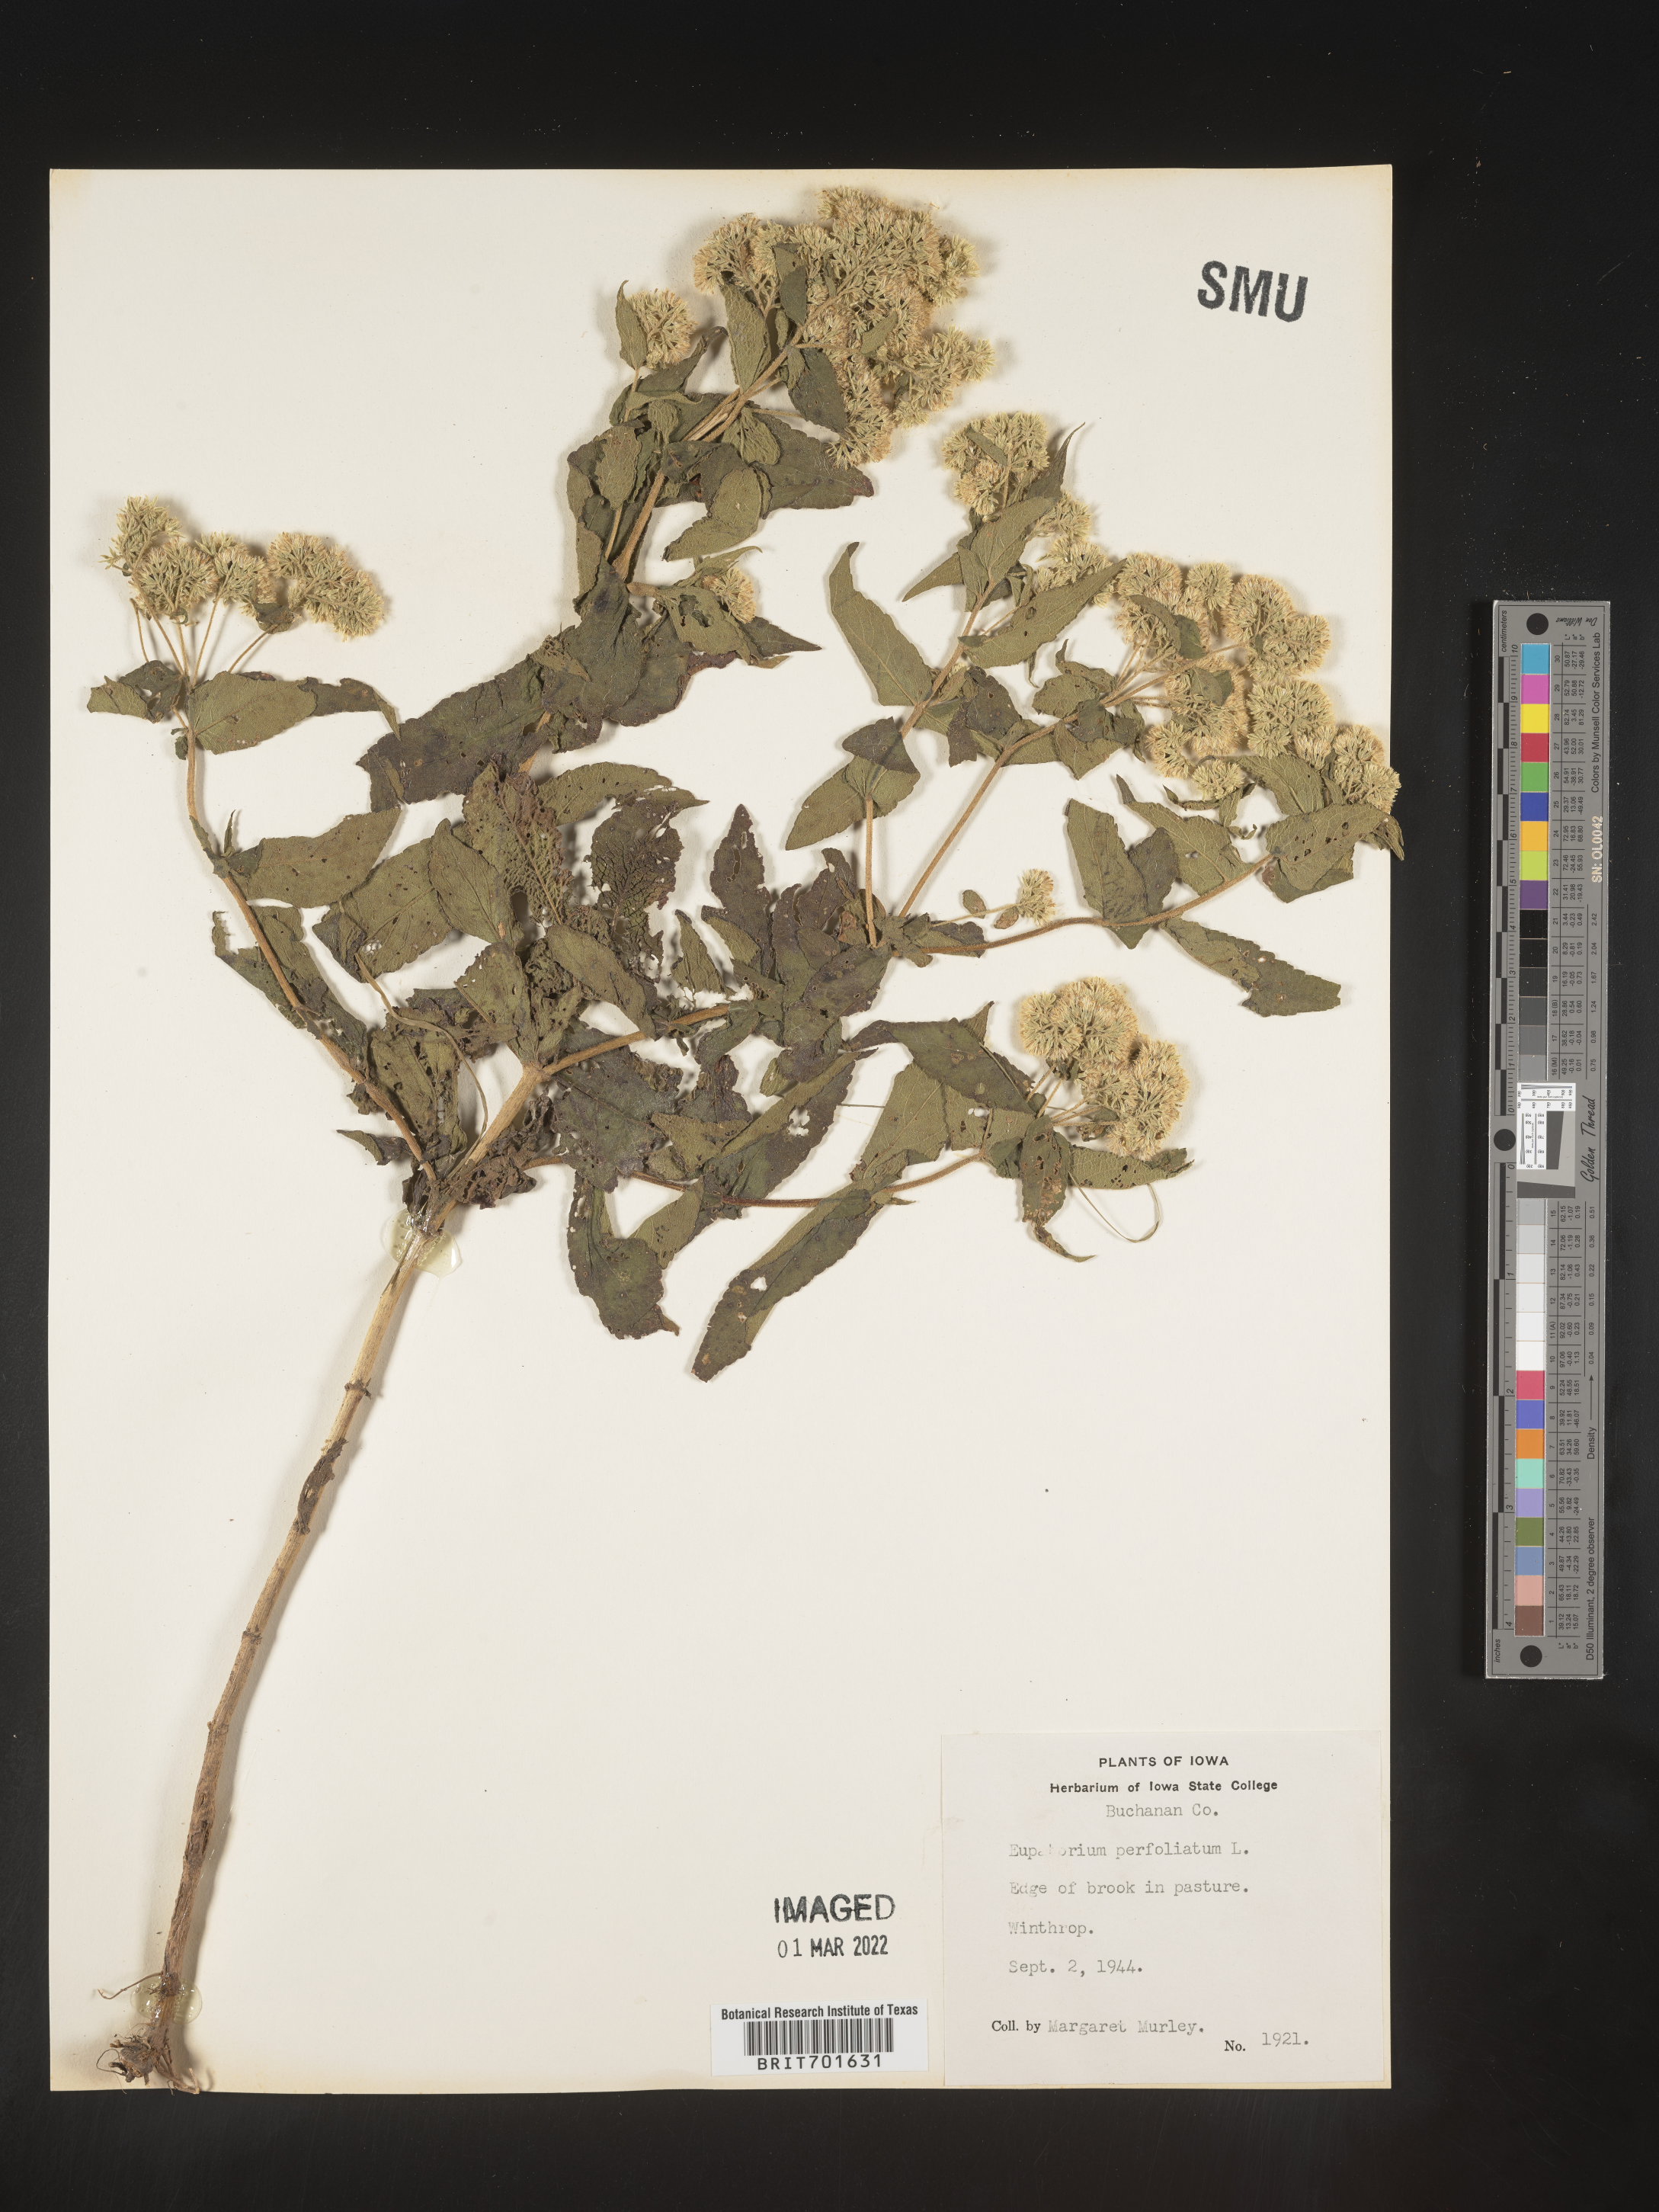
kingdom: Plantae
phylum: Tracheophyta
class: Magnoliopsida
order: Asterales
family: Asteraceae
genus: Eupatorium
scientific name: Eupatorium perfoliatum
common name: Boneset
